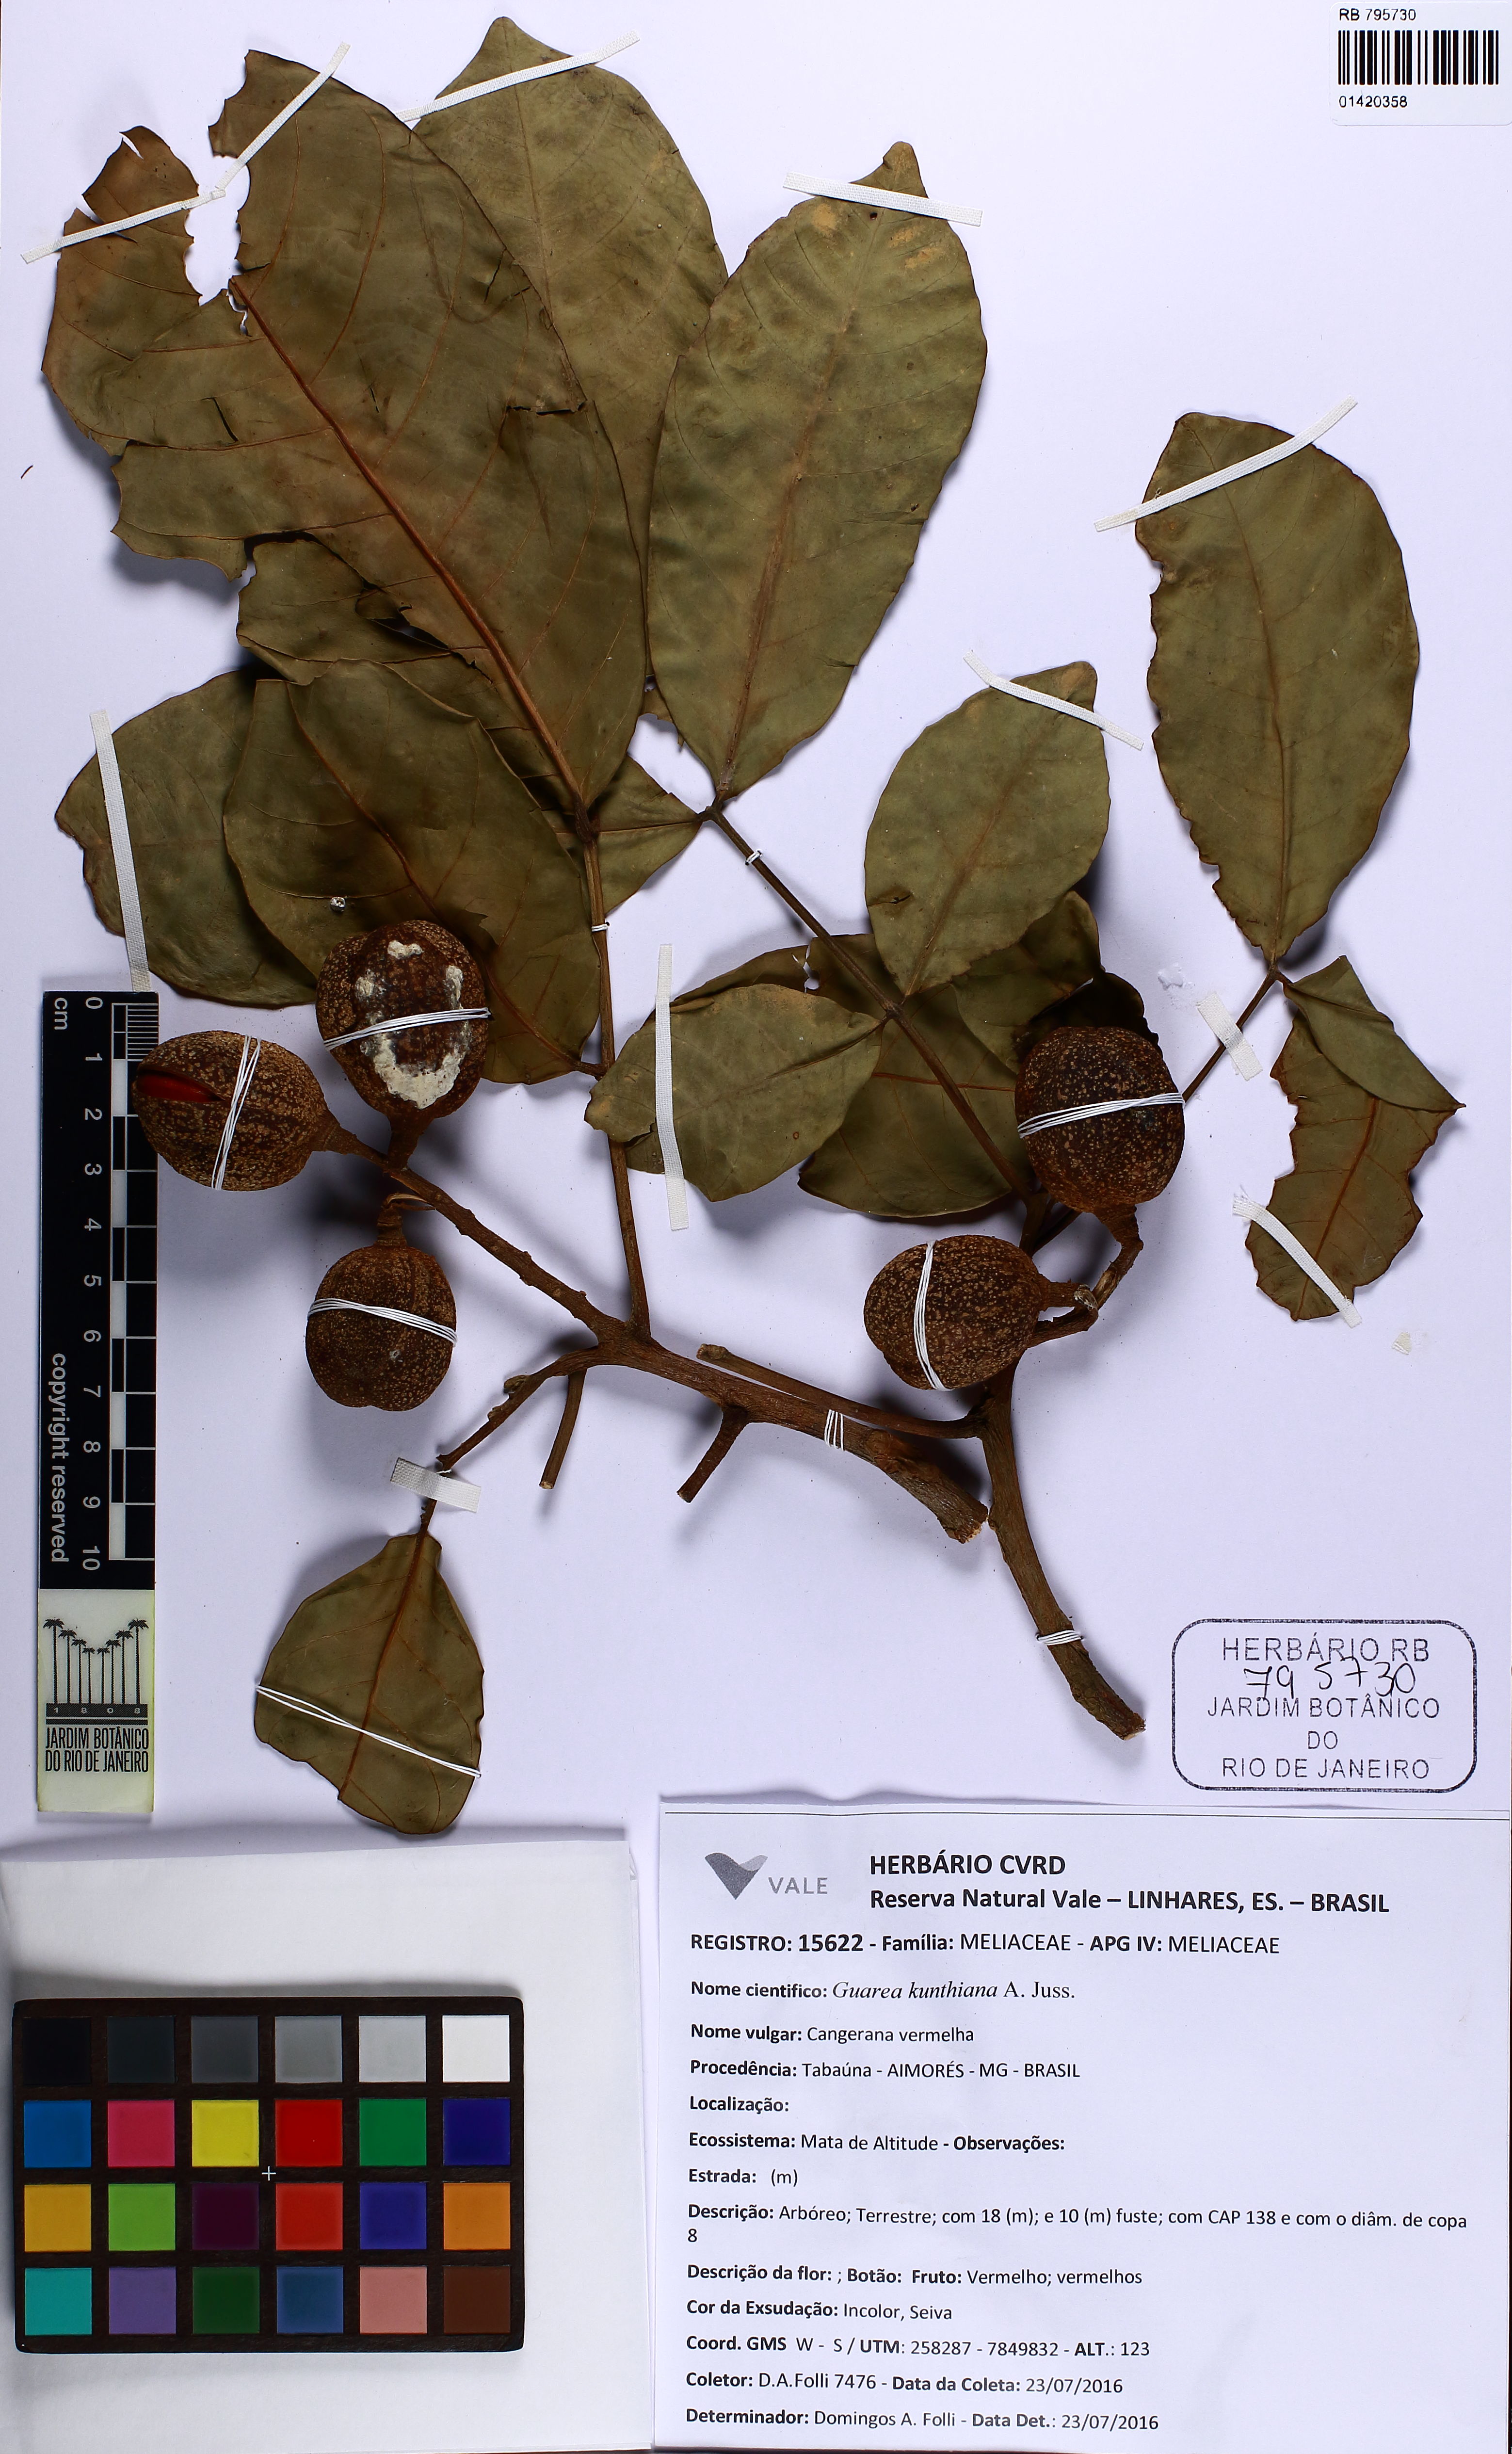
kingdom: Plantae
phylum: Tracheophyta
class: Magnoliopsida
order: Sapindales
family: Meliaceae
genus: Guarea
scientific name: Guarea kunthiana
